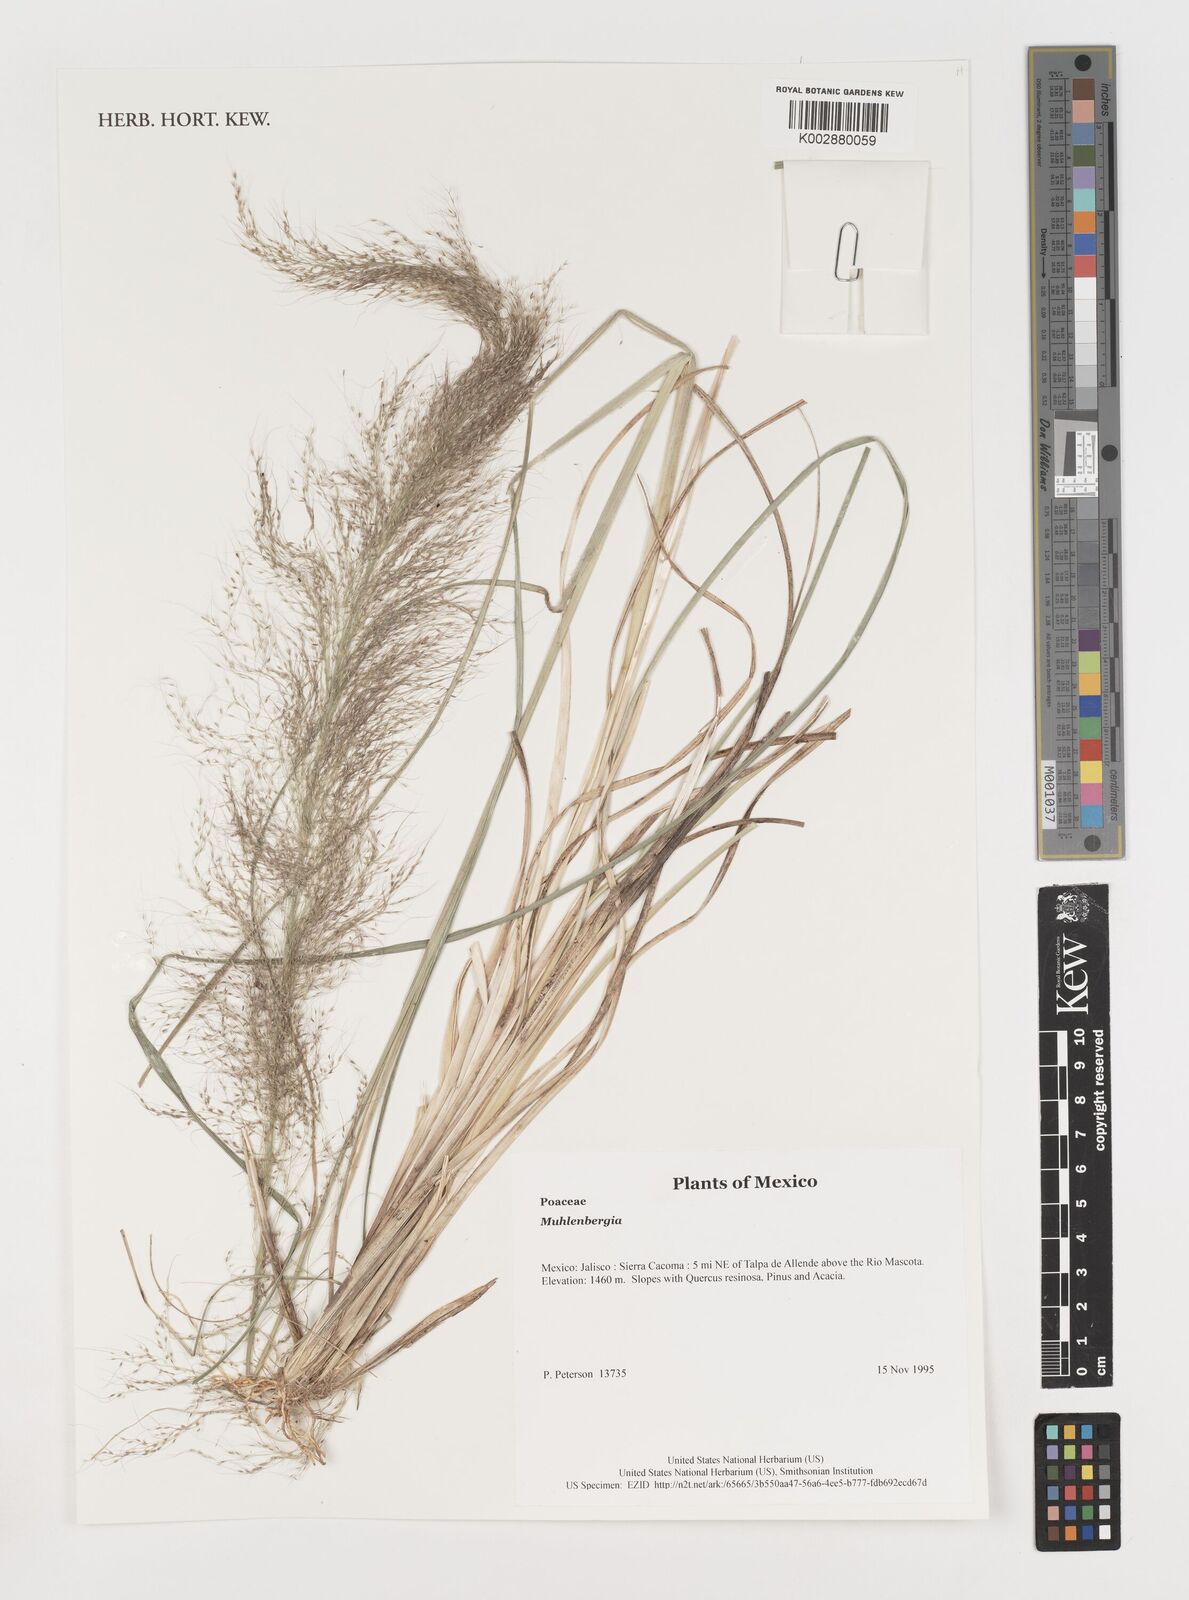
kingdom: Plantae
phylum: Tracheophyta
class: Liliopsida
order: Poales
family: Poaceae
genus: Muhlenbergia
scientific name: Muhlenbergia
